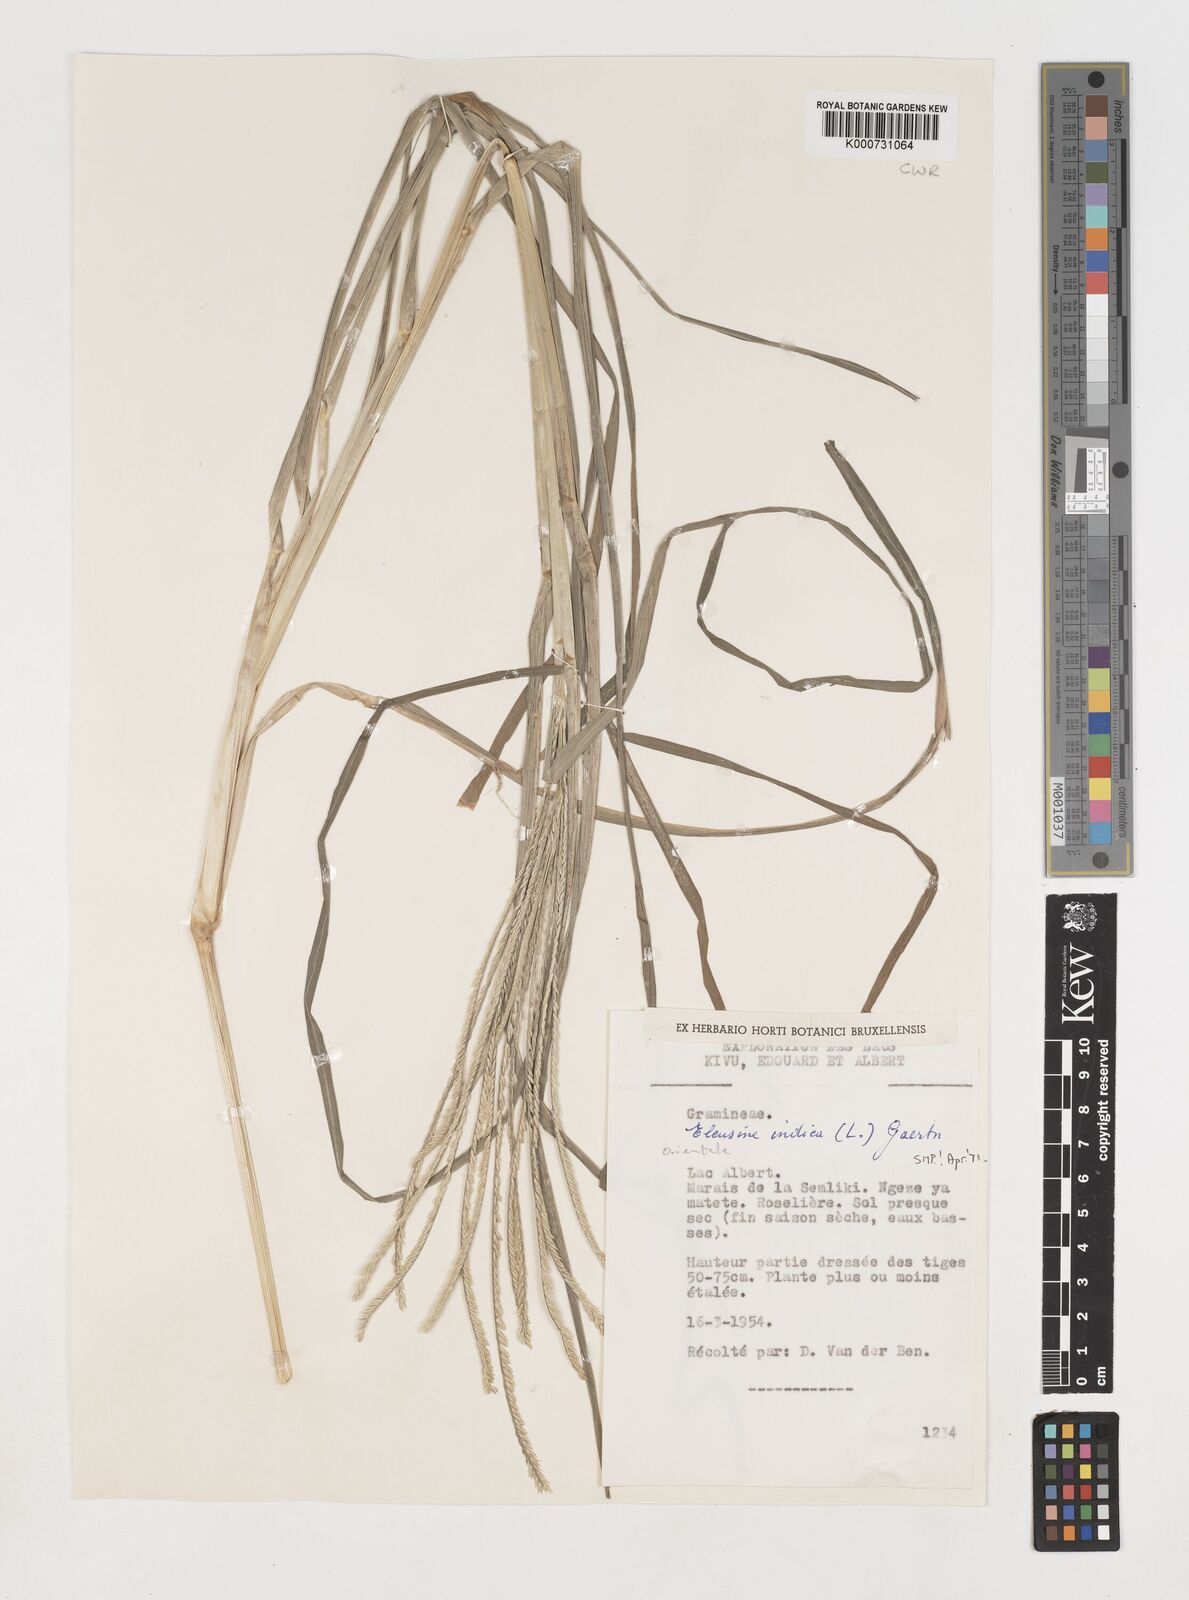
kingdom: Plantae
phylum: Tracheophyta
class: Liliopsida
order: Poales
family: Poaceae
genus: Eleusine
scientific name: Eleusine indica
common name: Yard-grass
